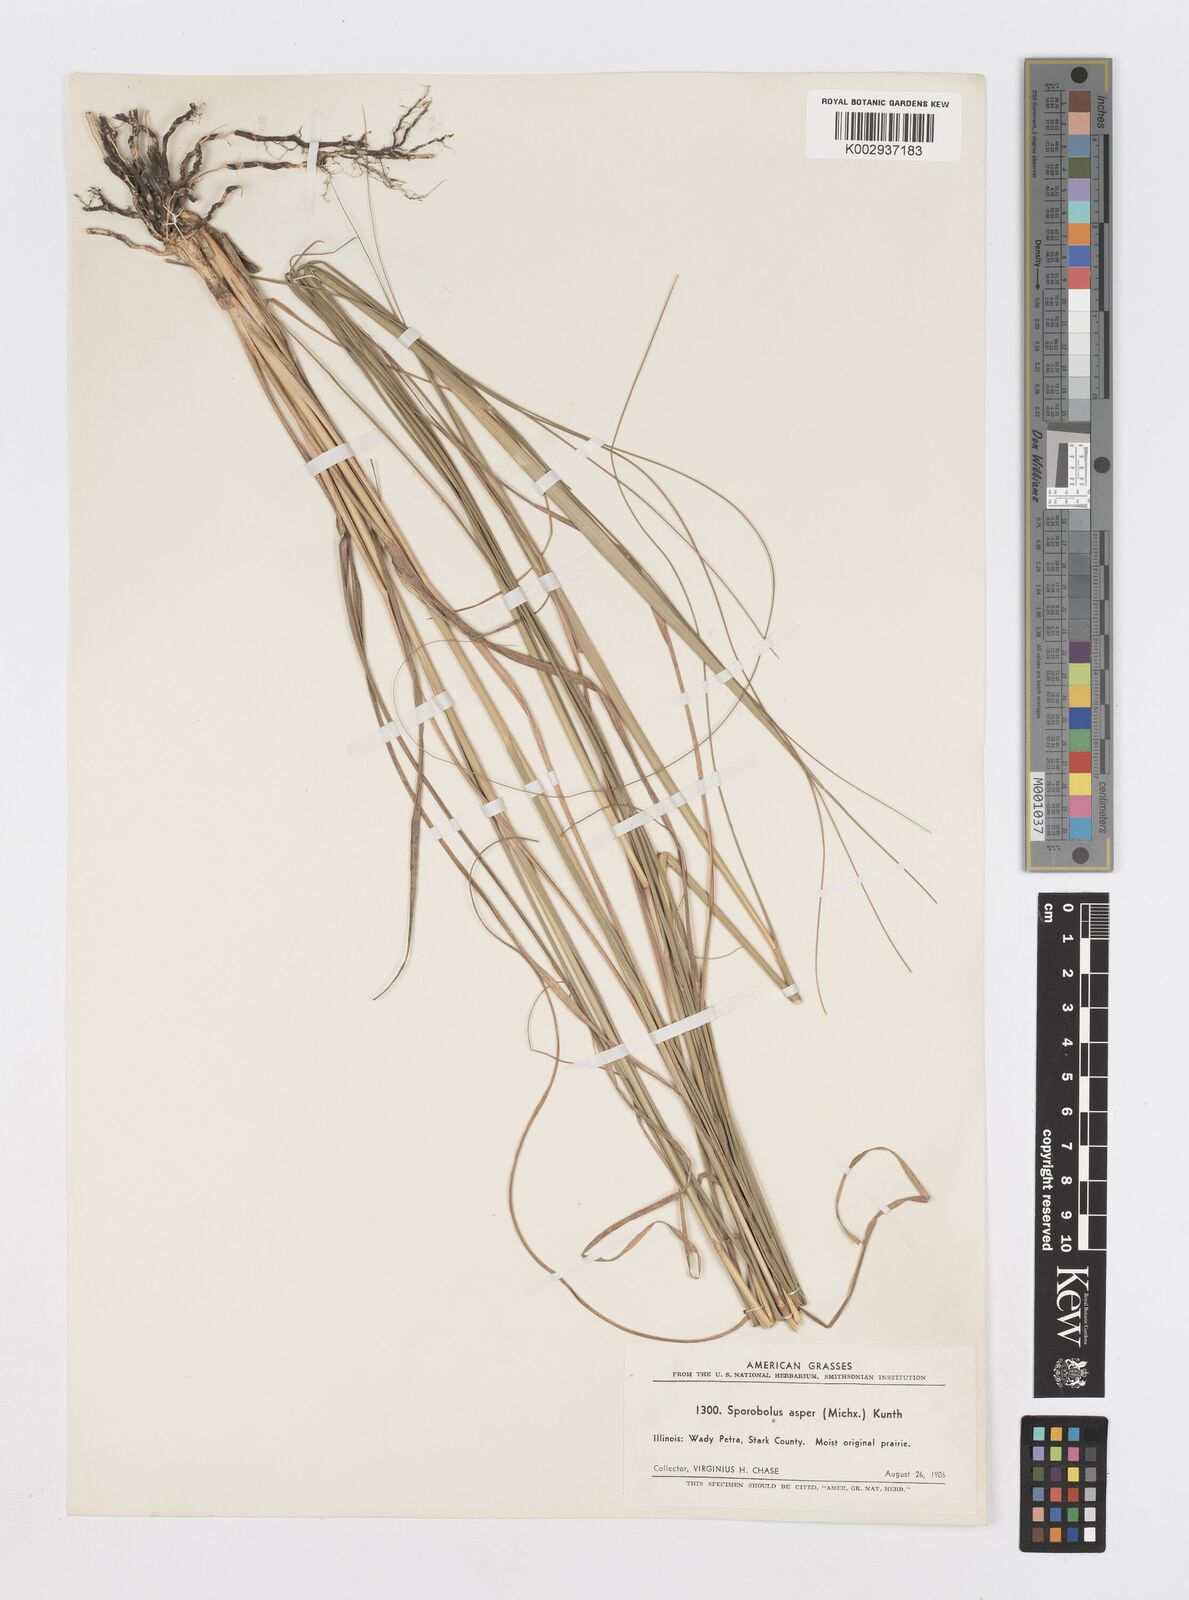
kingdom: Plantae
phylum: Tracheophyta
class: Liliopsida
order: Poales
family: Poaceae
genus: Sporobolus
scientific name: Sporobolus compositus
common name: Rough dropseed
